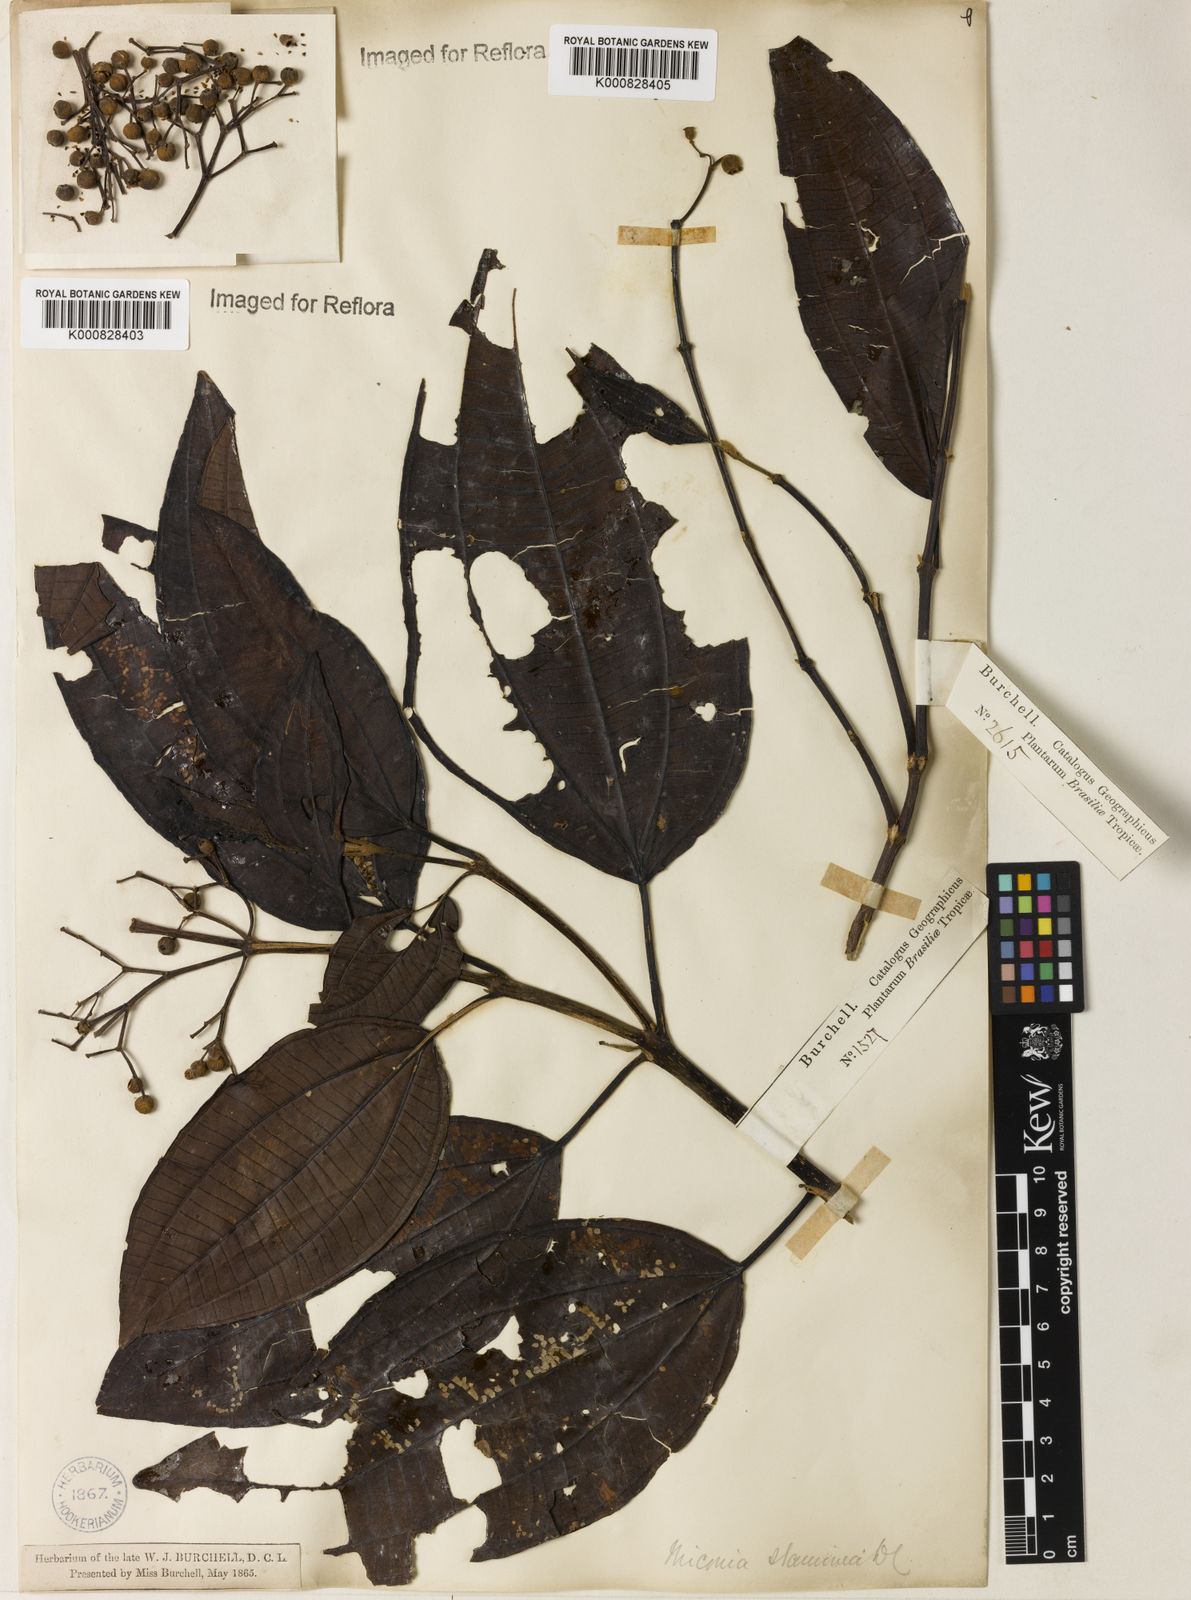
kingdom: Plantae
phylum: Tracheophyta
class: Magnoliopsida
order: Myrtales
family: Melastomataceae
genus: Miconia
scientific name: Miconia staminea
